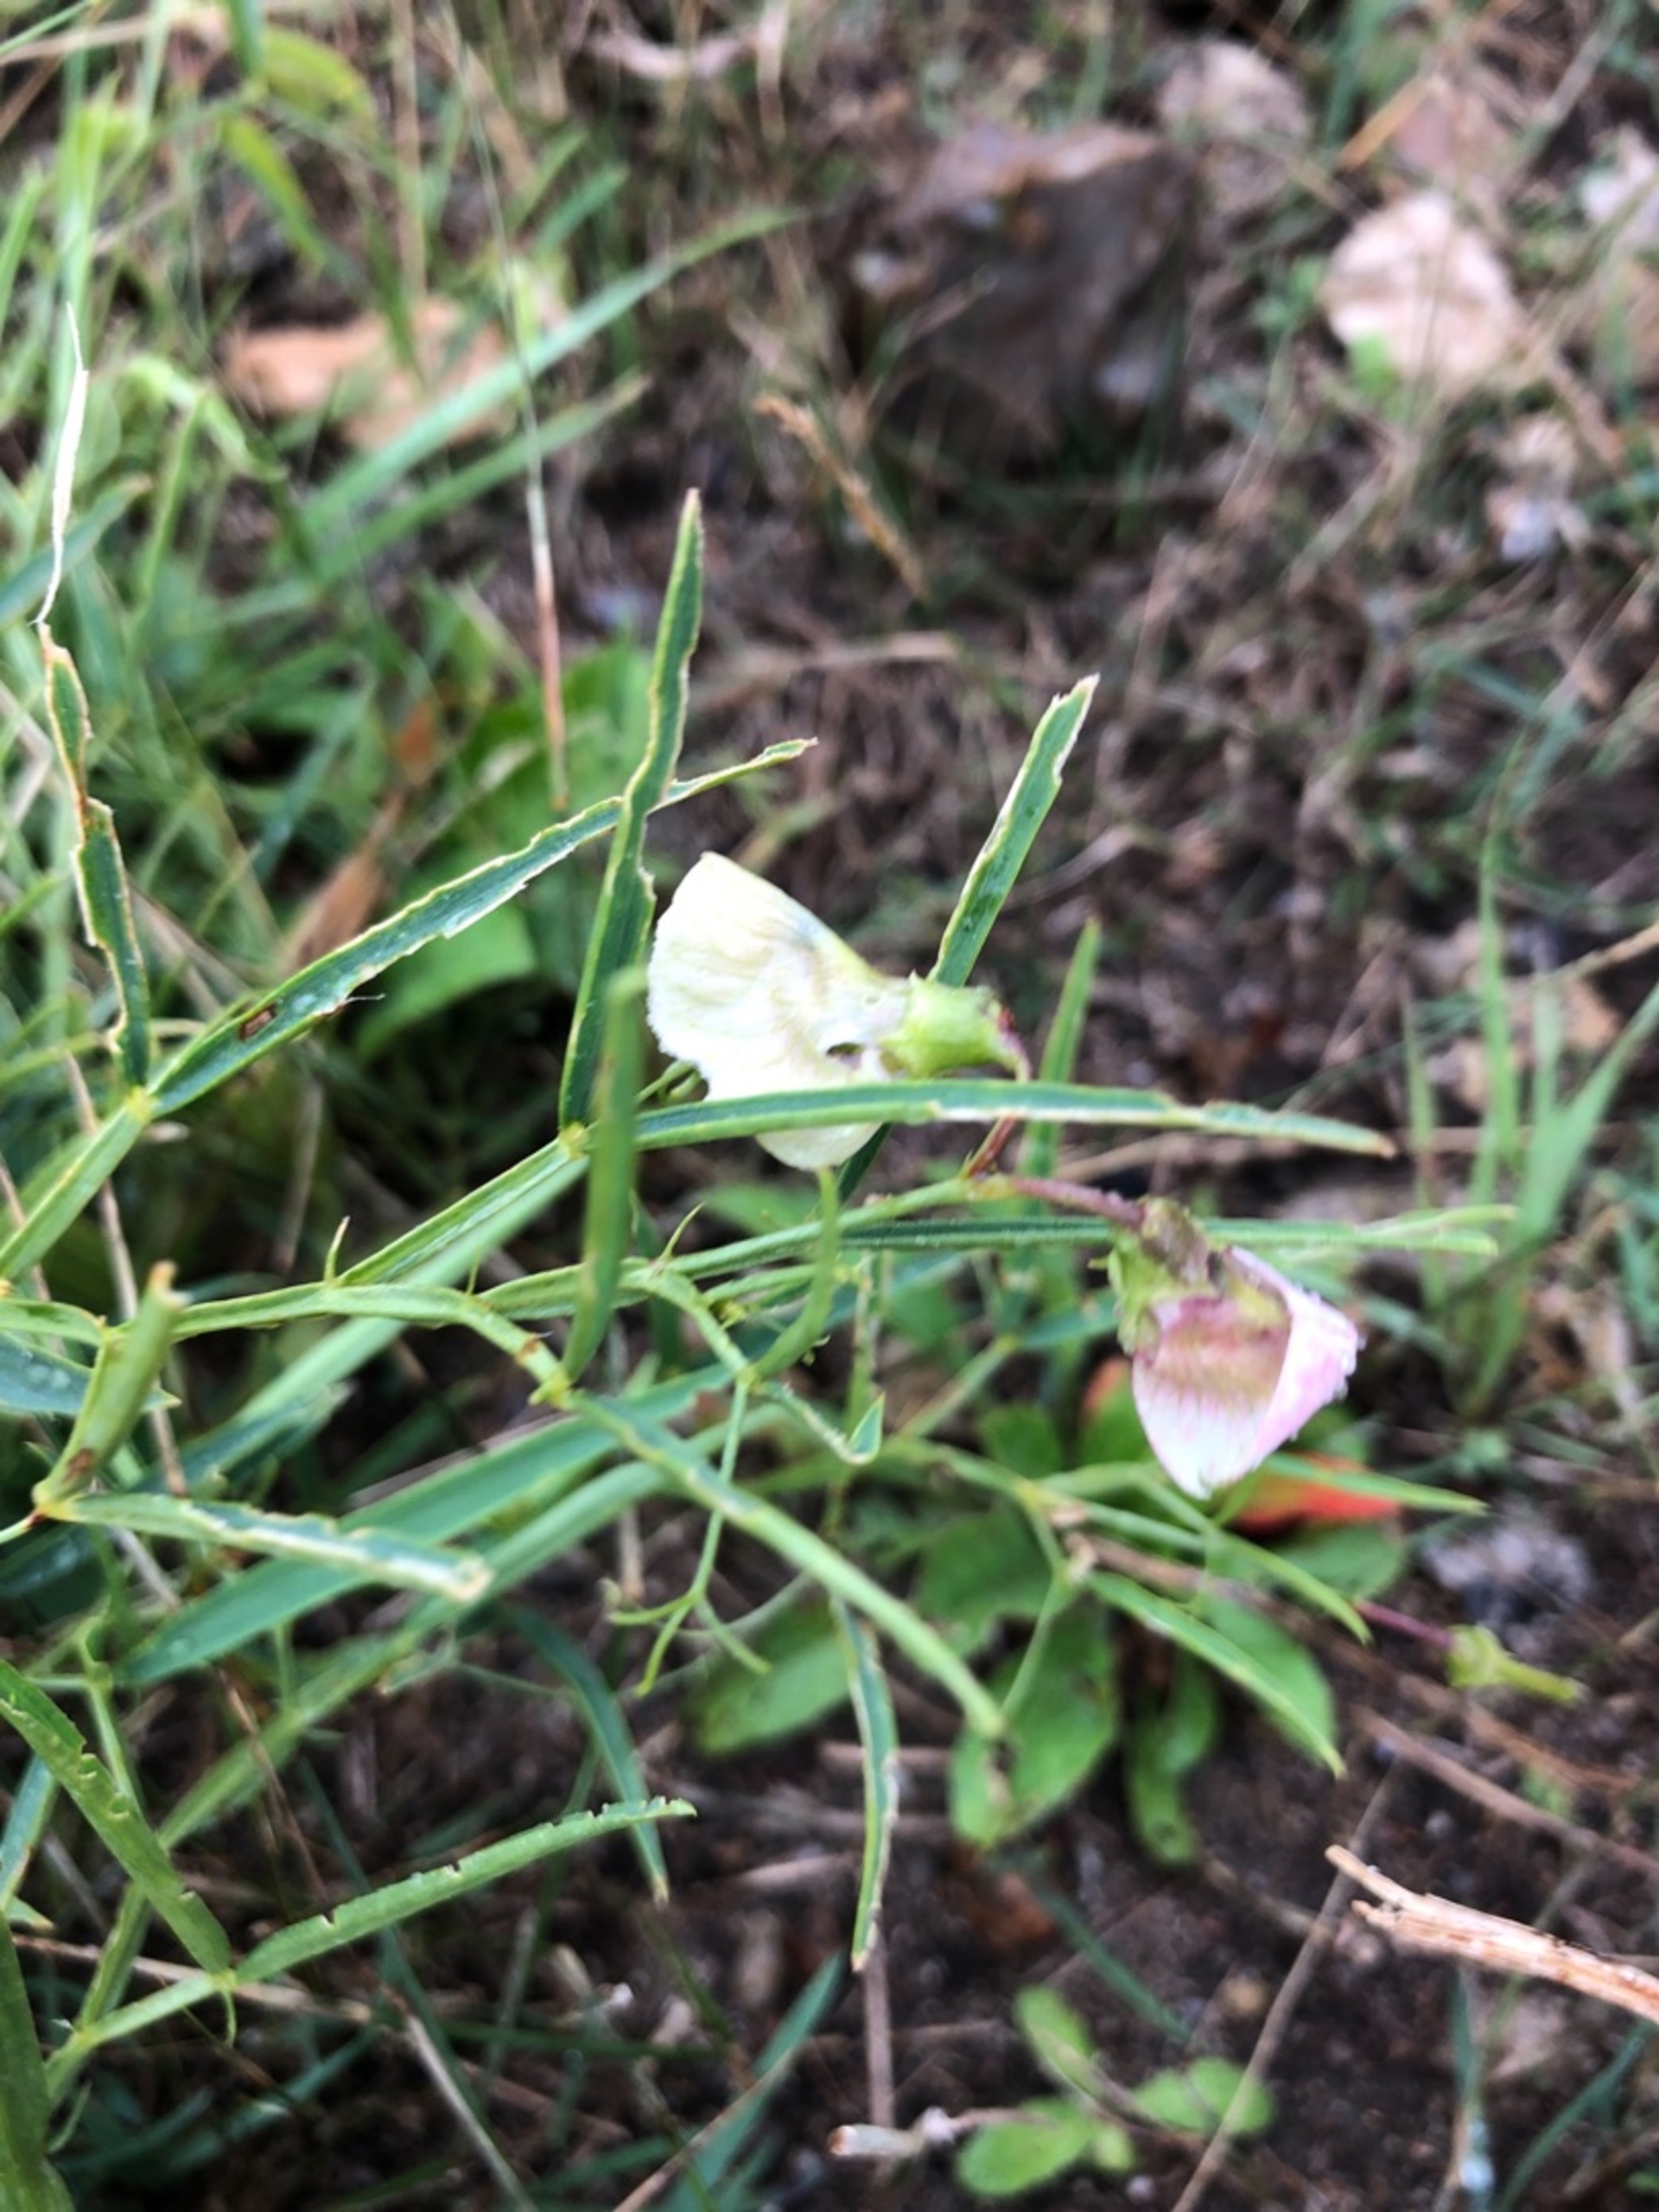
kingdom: Plantae
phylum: Tracheophyta
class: Magnoliopsida
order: Fabales
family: Fabaceae
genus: Lathyrus
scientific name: Lathyrus sylvestris
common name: Skov-fladbælg
